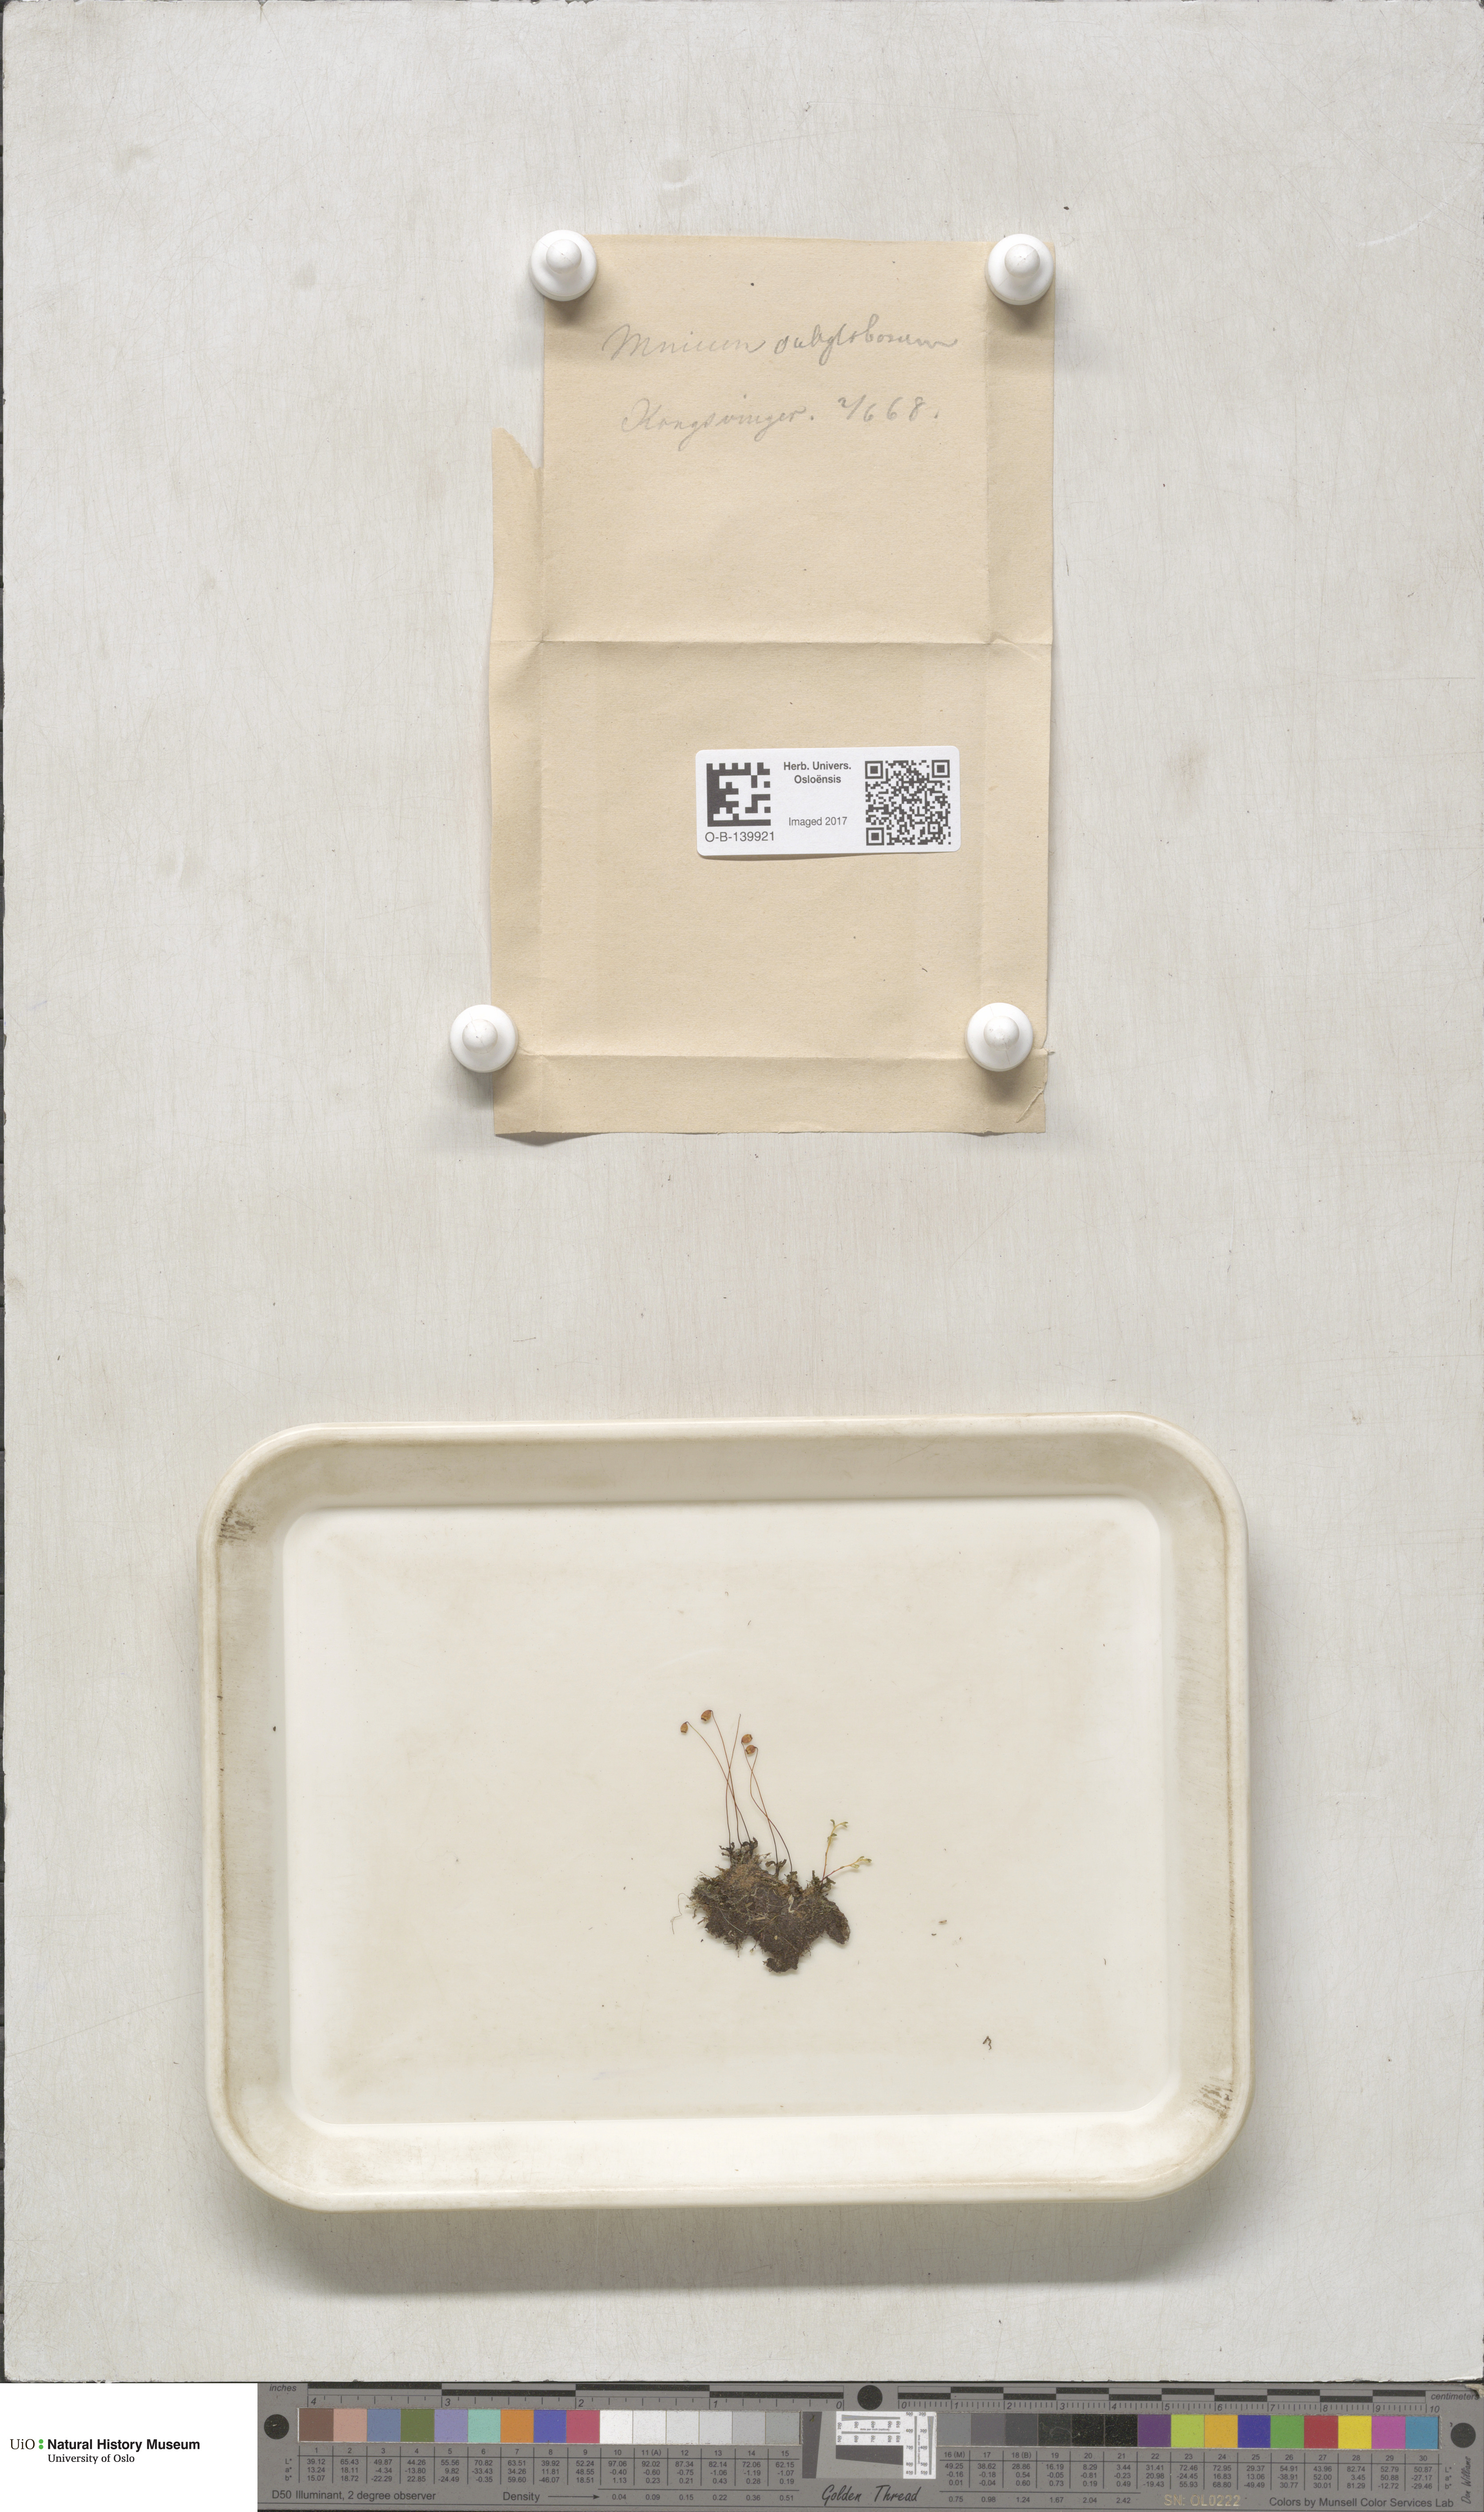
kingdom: Plantae
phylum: Bryophyta
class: Bryopsida
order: Bryales
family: Mniaceae
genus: Rhizomnium
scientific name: Rhizomnium pseudopunctatum
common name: Felted leafy moss
